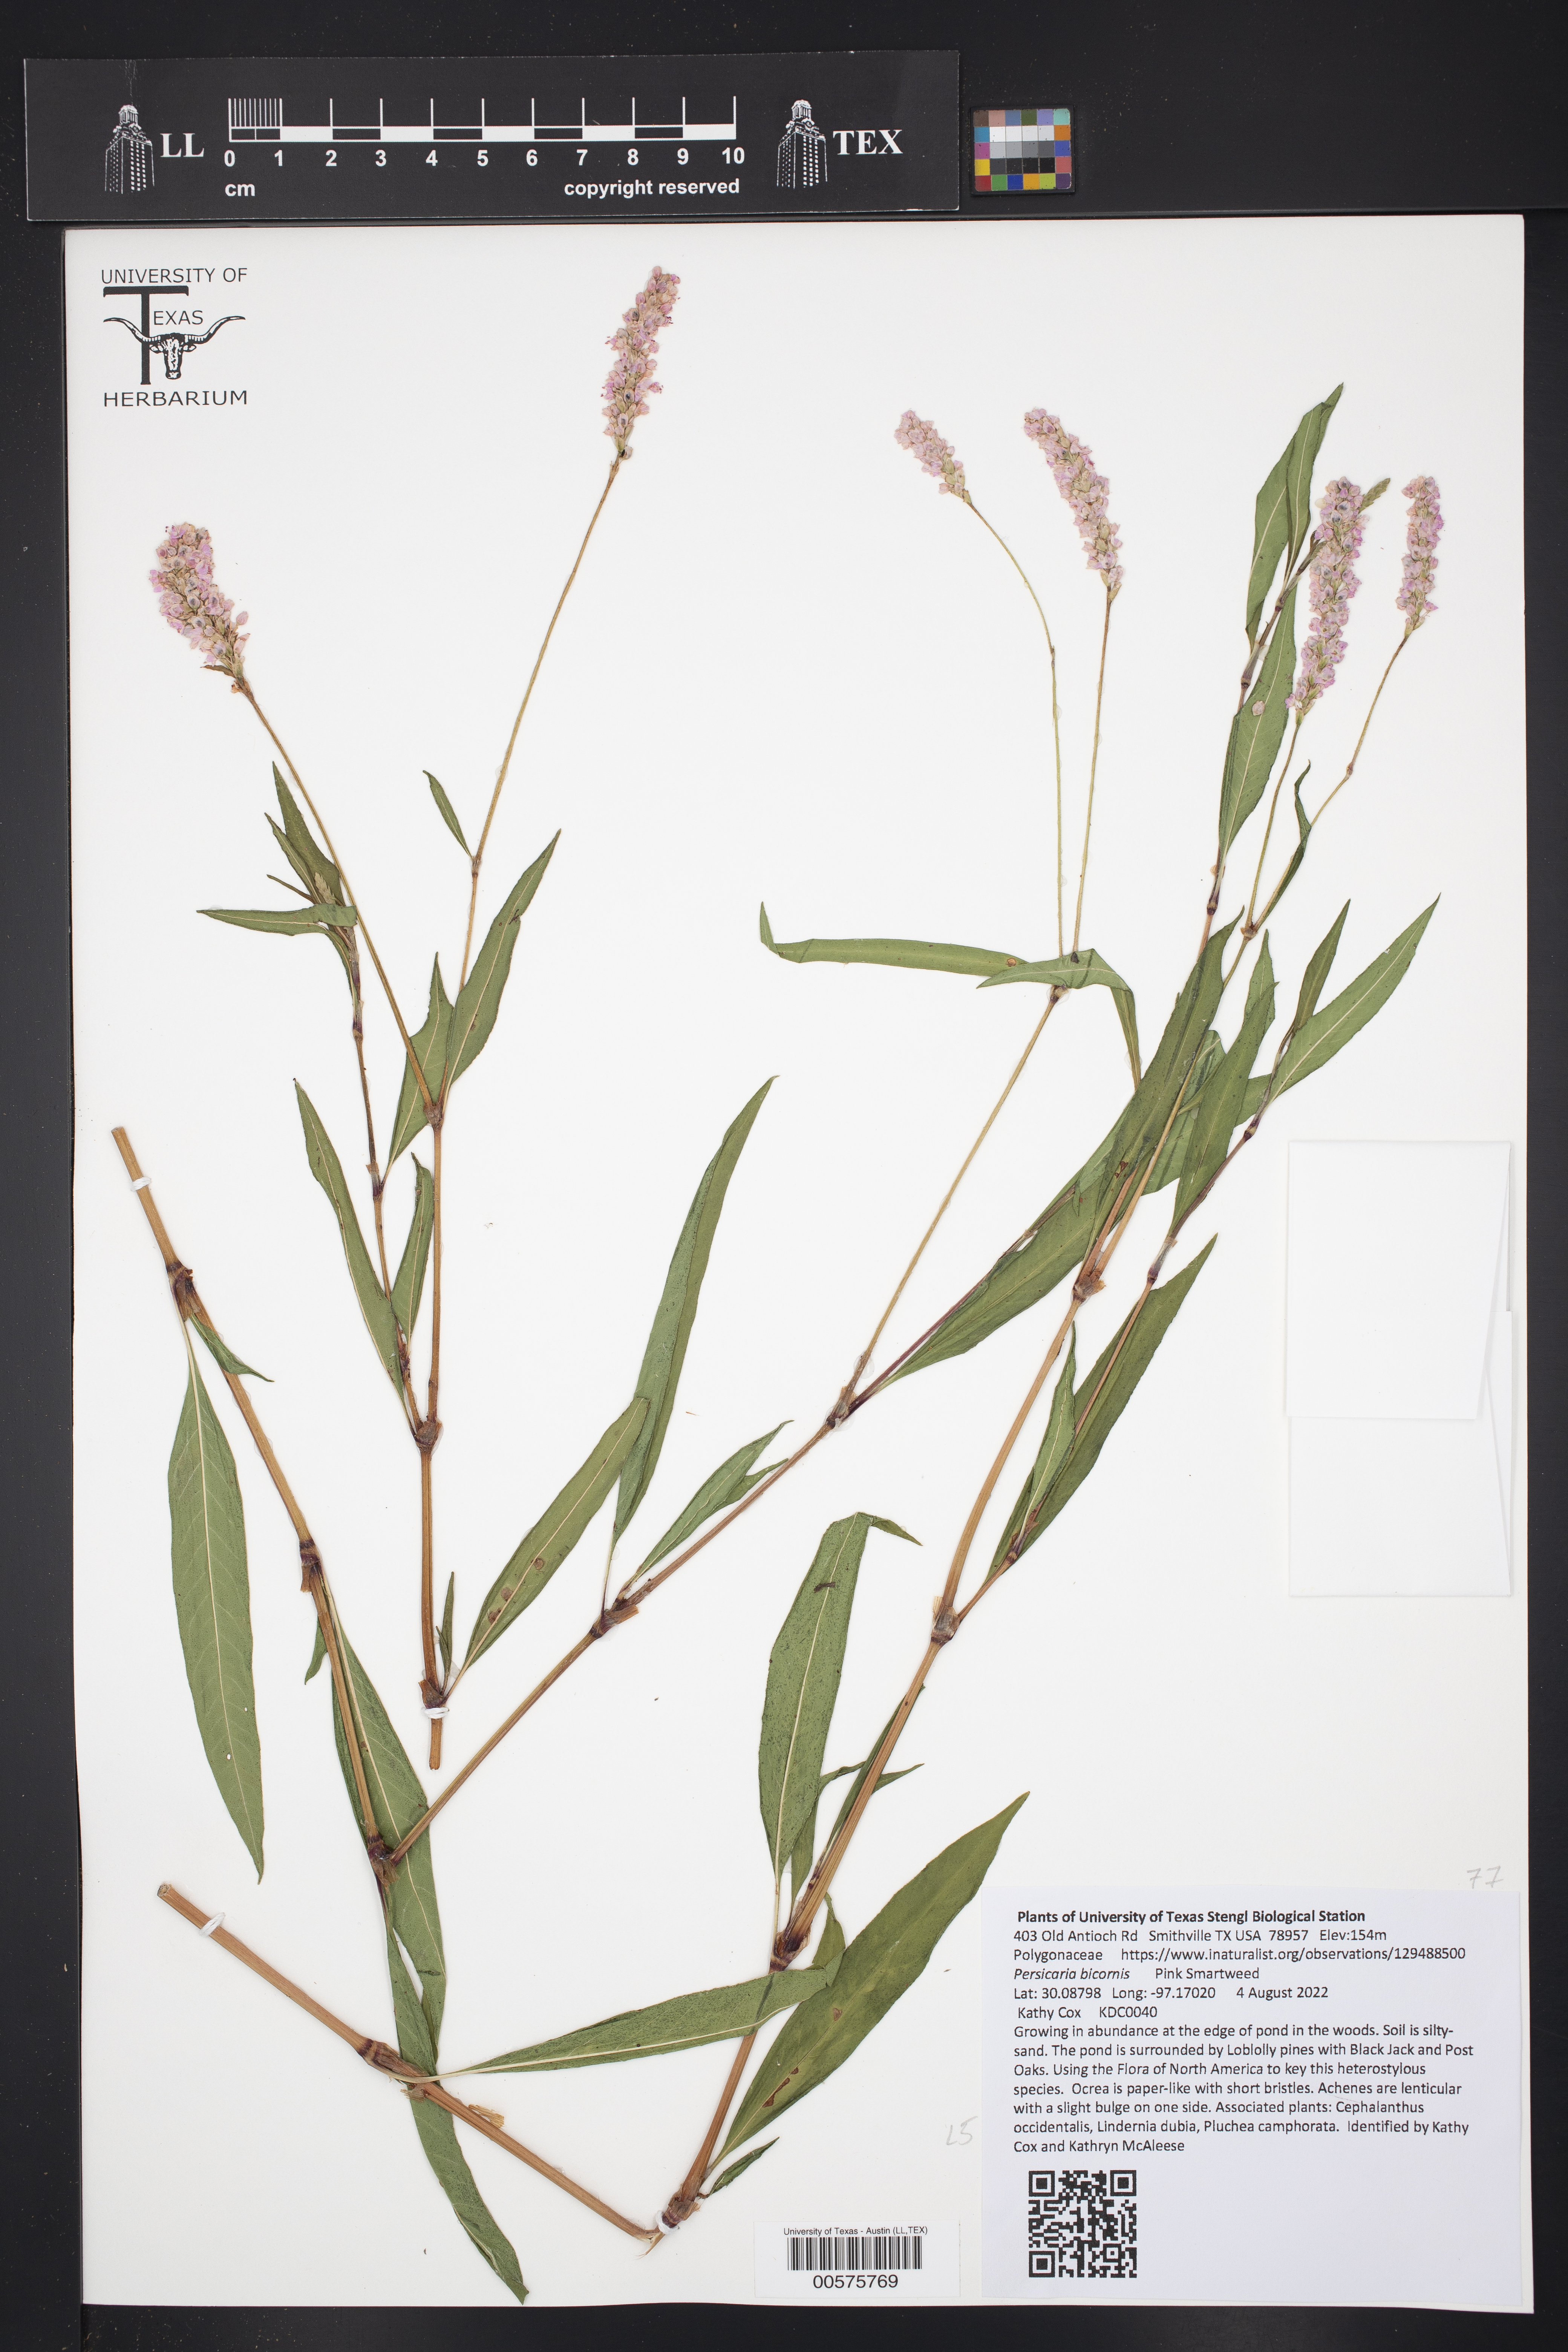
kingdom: Plantae
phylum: Tracheophyta
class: Magnoliopsida
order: Caryophyllales
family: Polygonaceae
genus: Persicaria
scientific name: Persicaria bicornis
